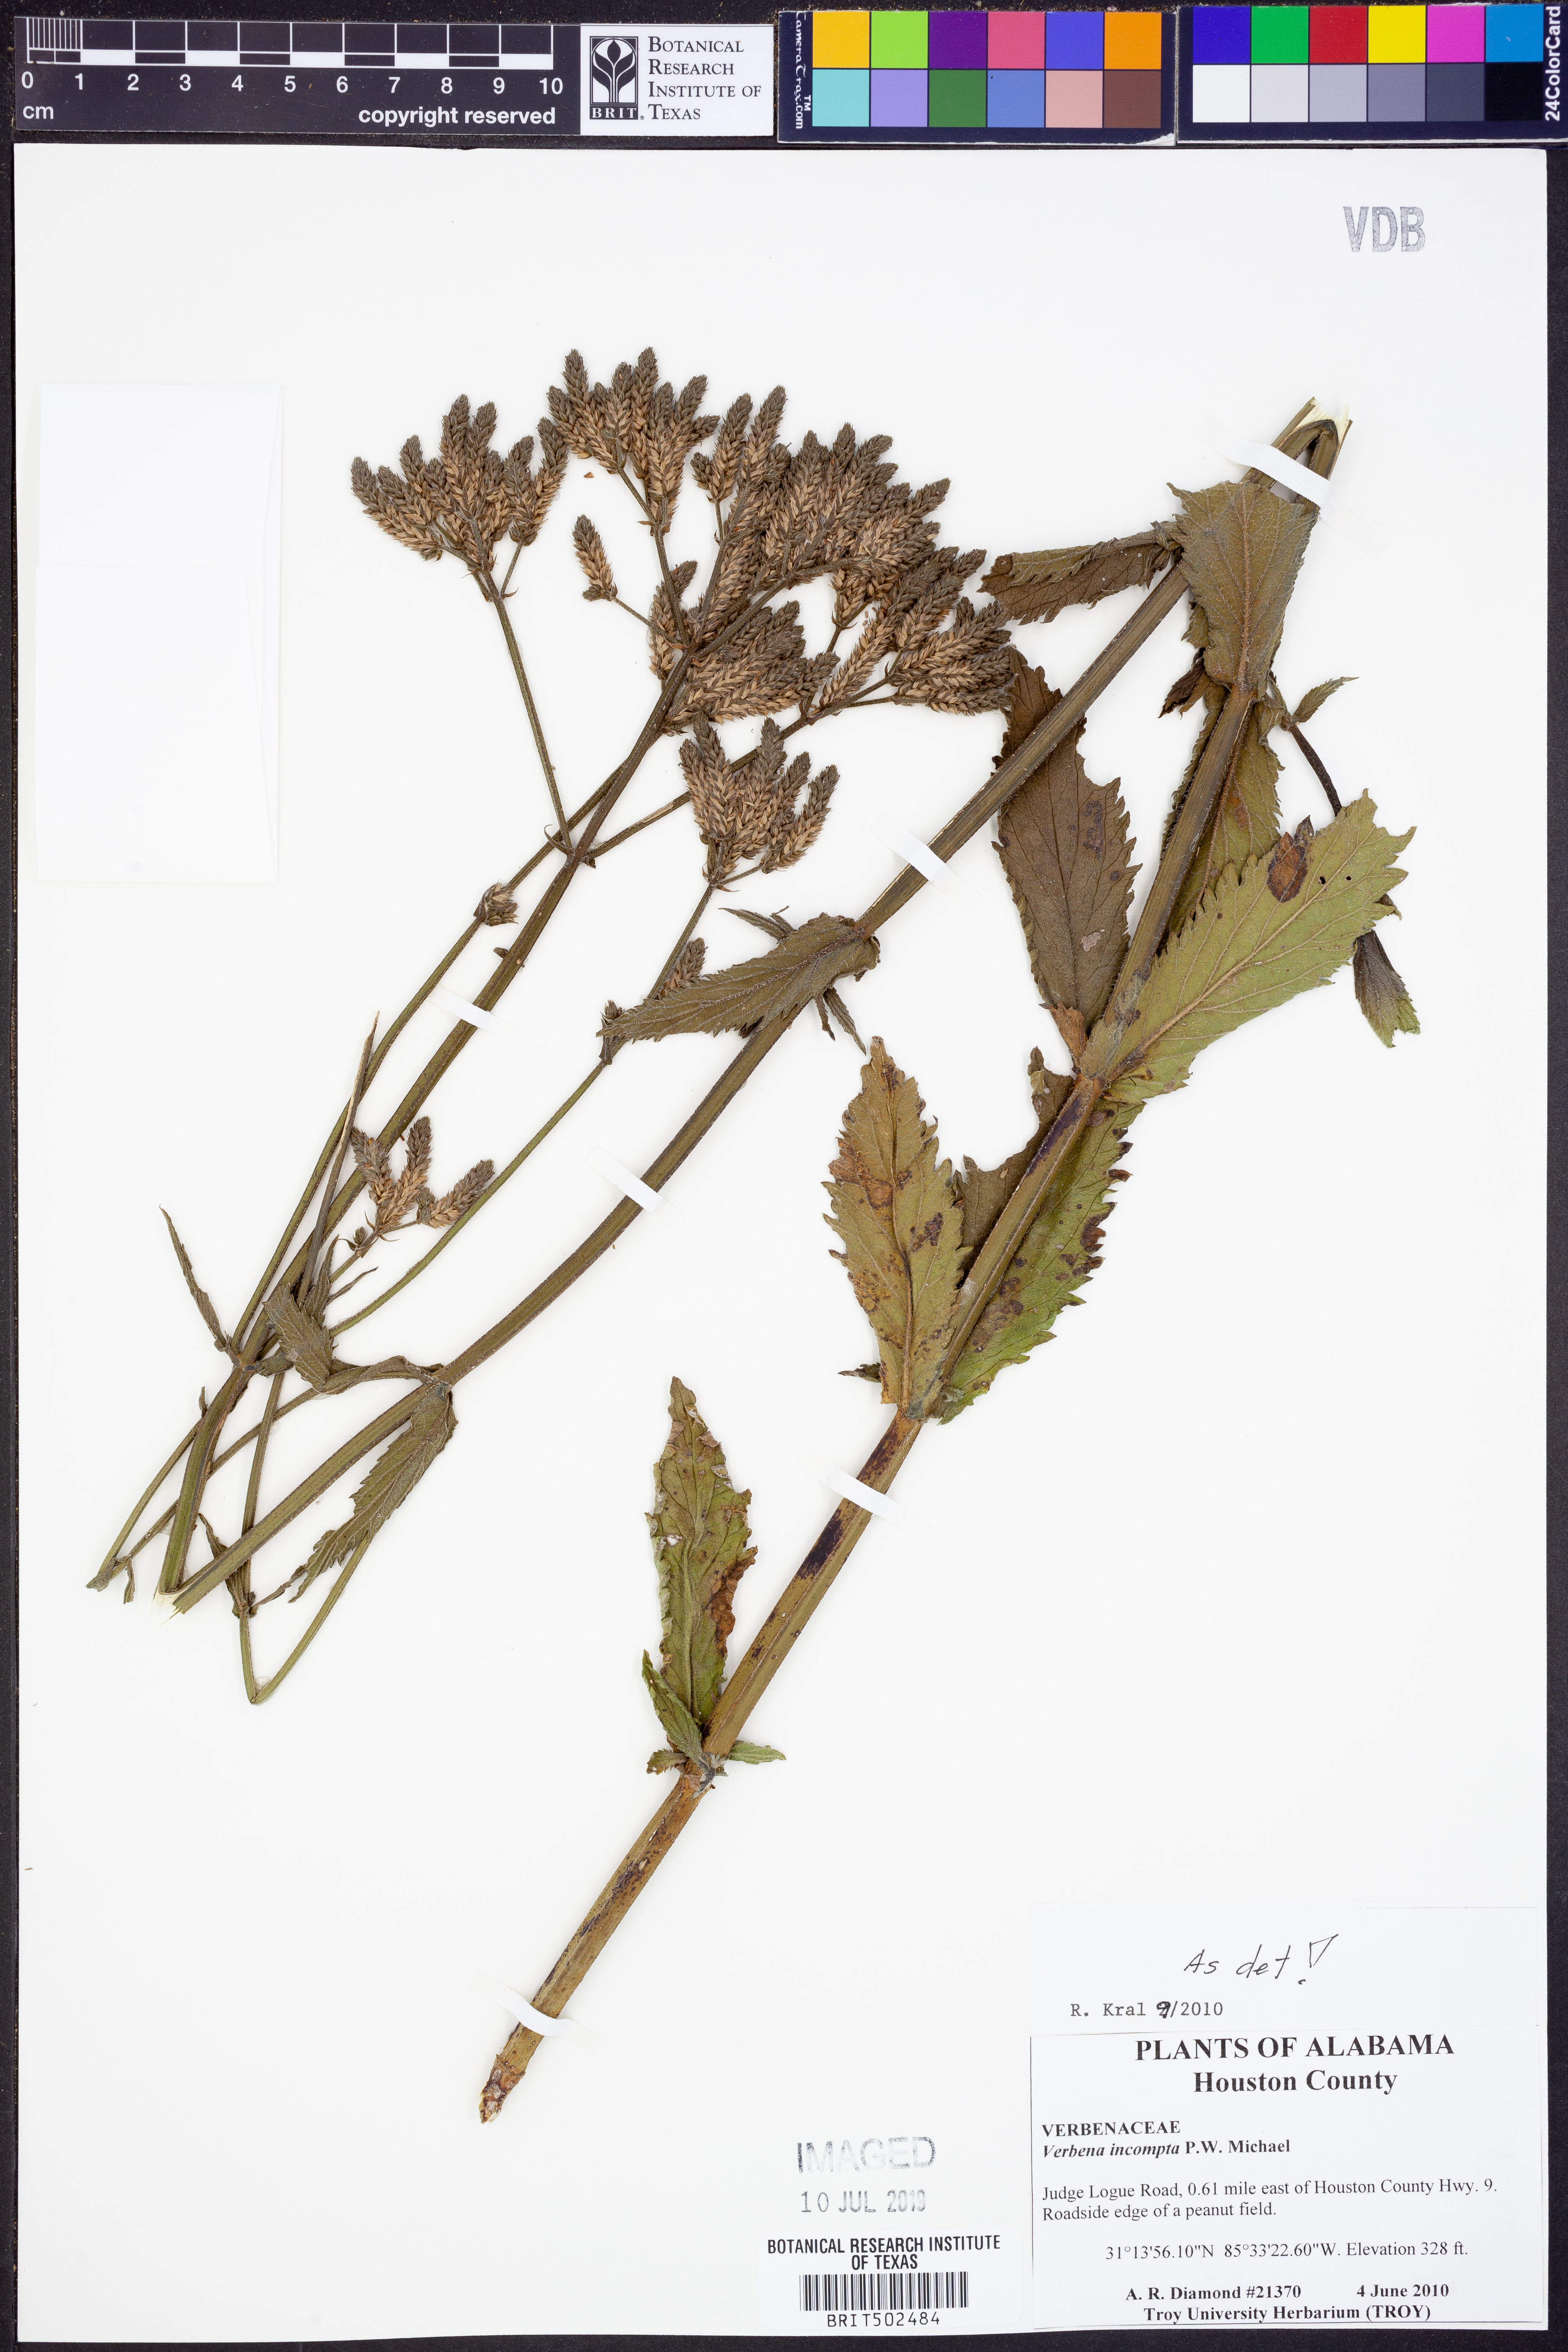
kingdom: Plantae
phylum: Tracheophyta
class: Magnoliopsida
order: Lamiales
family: Verbenaceae
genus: Verbena
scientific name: Verbena incompta
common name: Purpletop vervain
